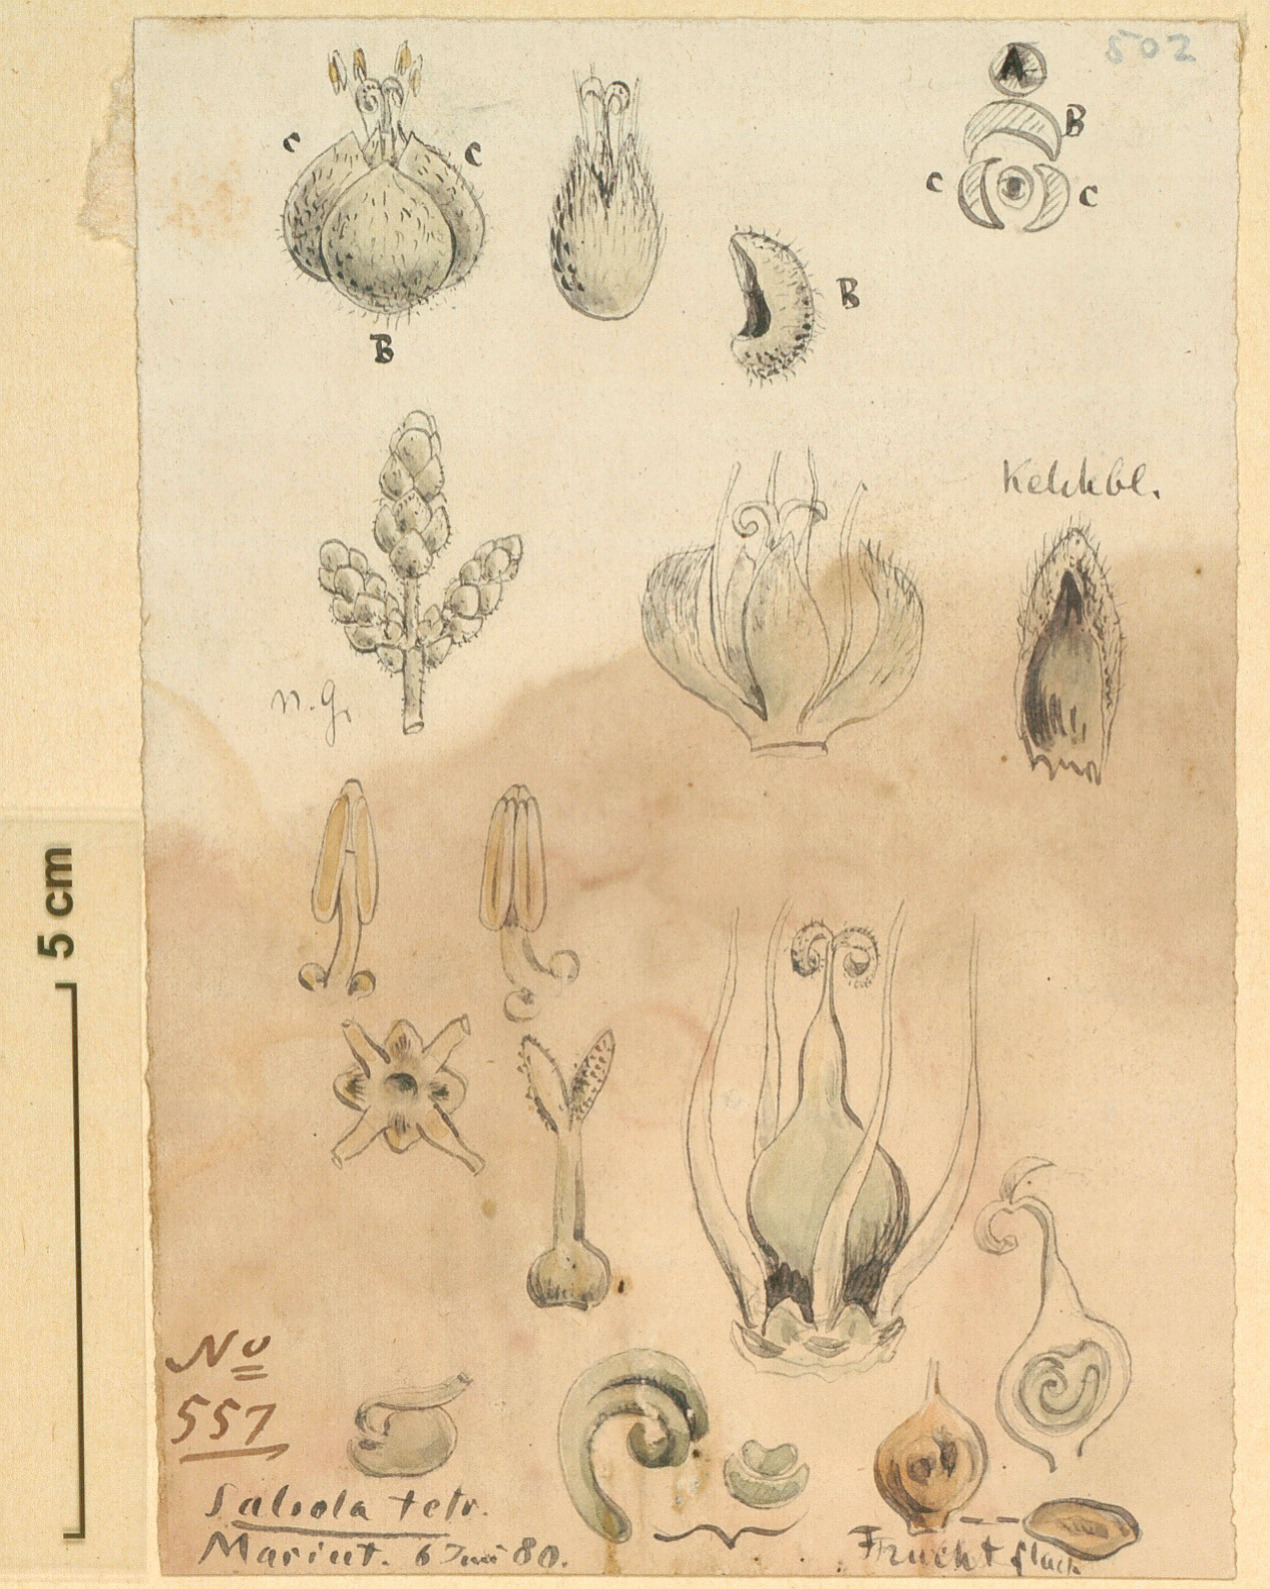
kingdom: Plantae
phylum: Tracheophyta
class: Magnoliopsida
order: Caryophyllales
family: Amaranthaceae
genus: Caroxylon
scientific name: Caroxylon tetrandrum
